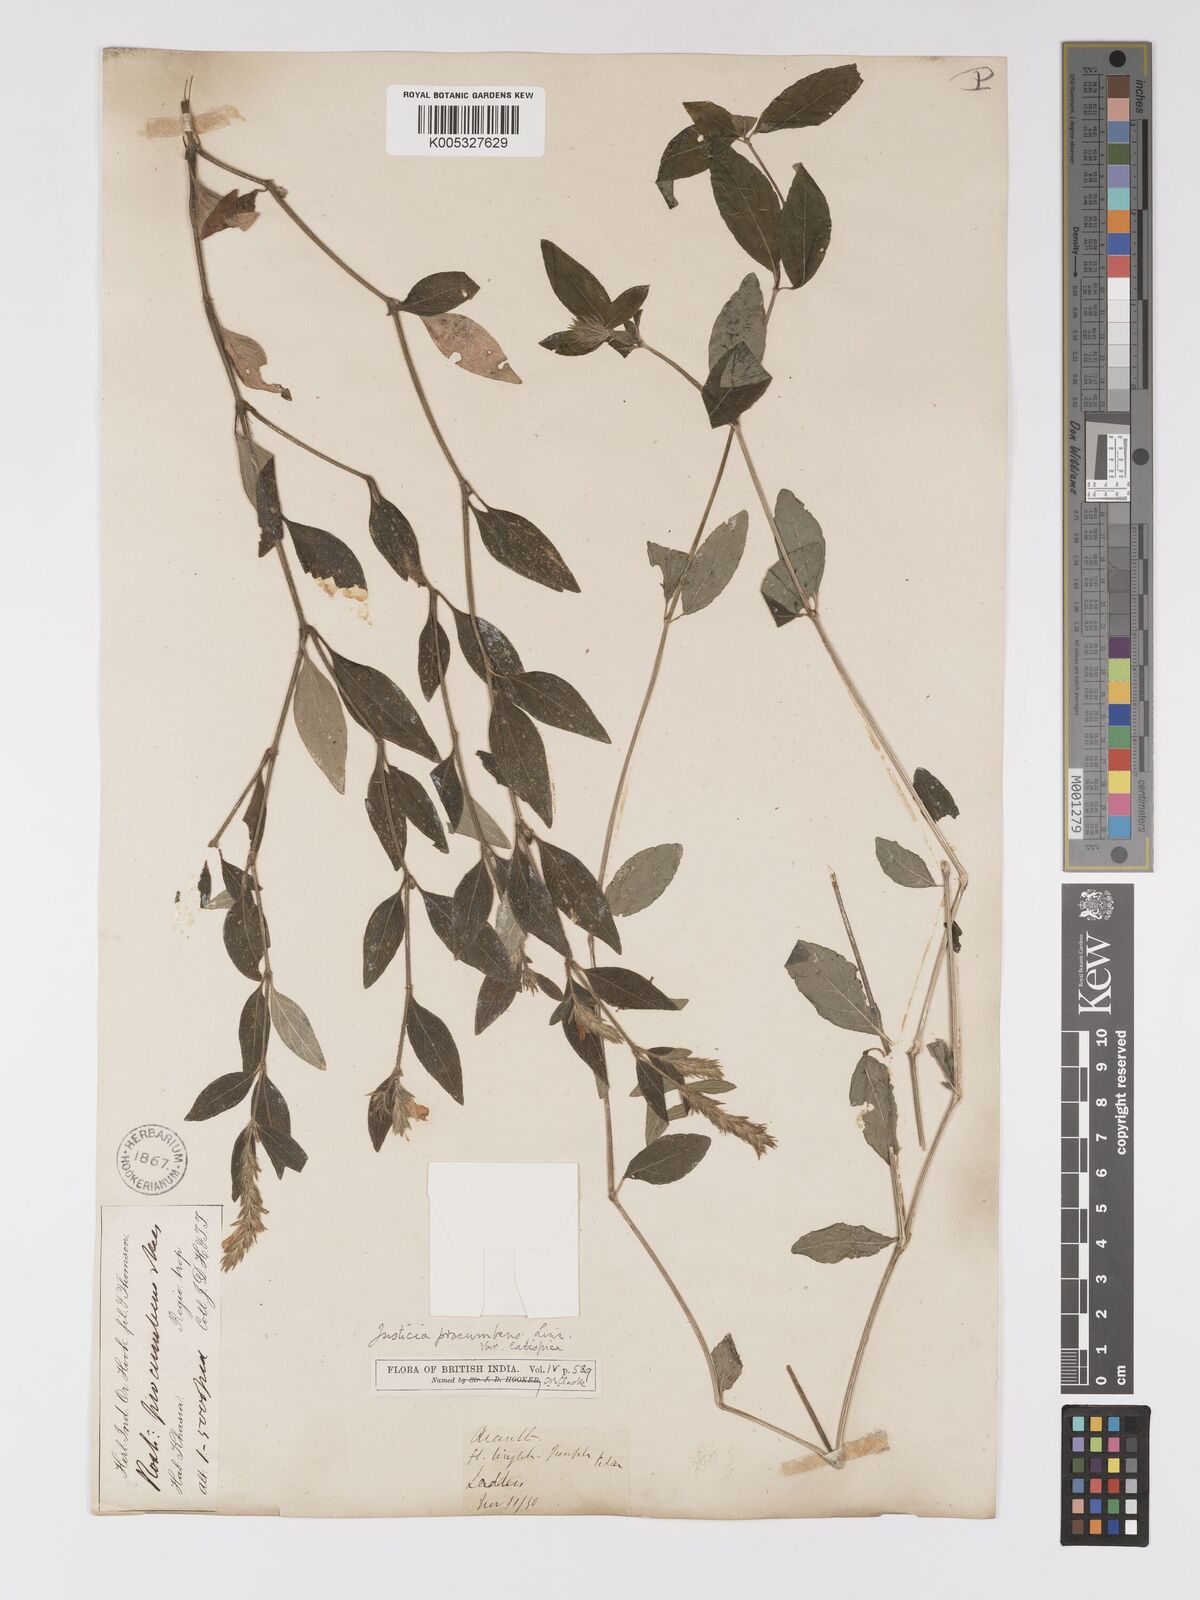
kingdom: Plantae
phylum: Tracheophyta
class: Magnoliopsida
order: Lamiales
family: Acanthaceae
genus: Rostellularia
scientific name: Rostellularia latispica
